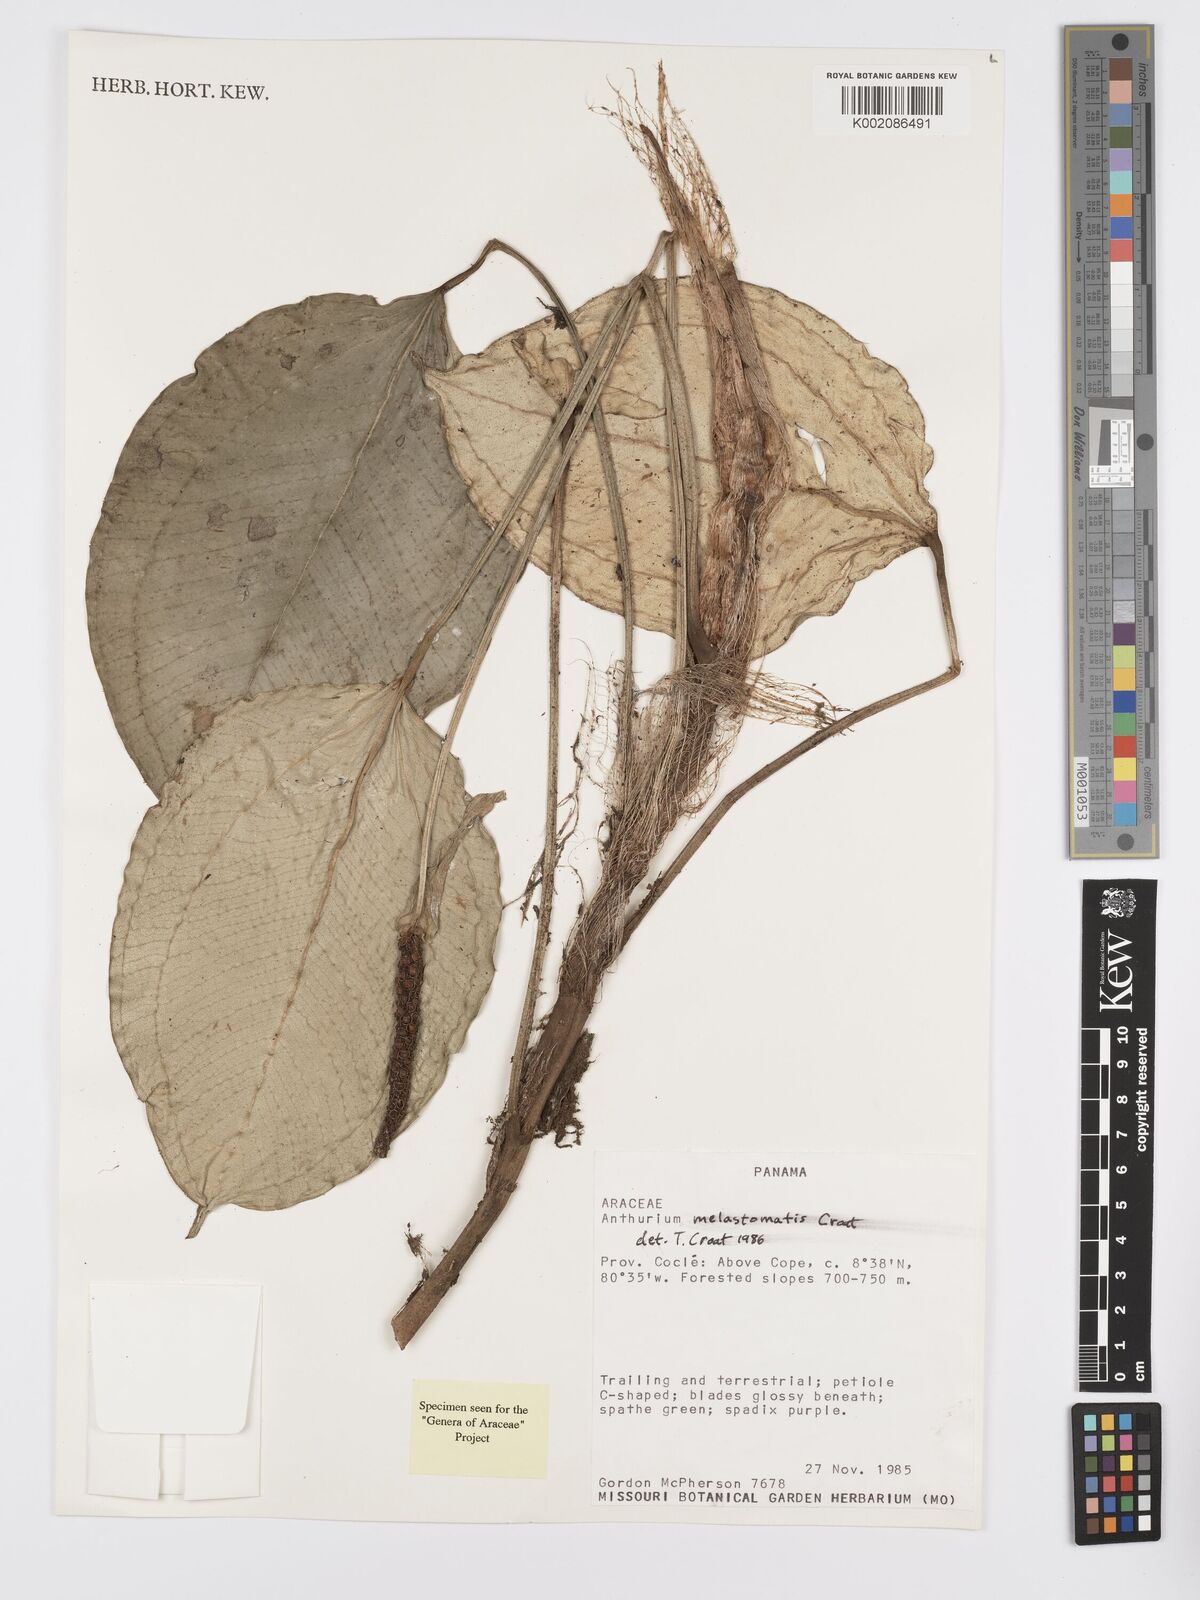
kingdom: Plantae
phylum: Tracheophyta
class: Liliopsida
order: Alismatales
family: Araceae
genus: Anthurium
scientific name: Anthurium melastomatis
